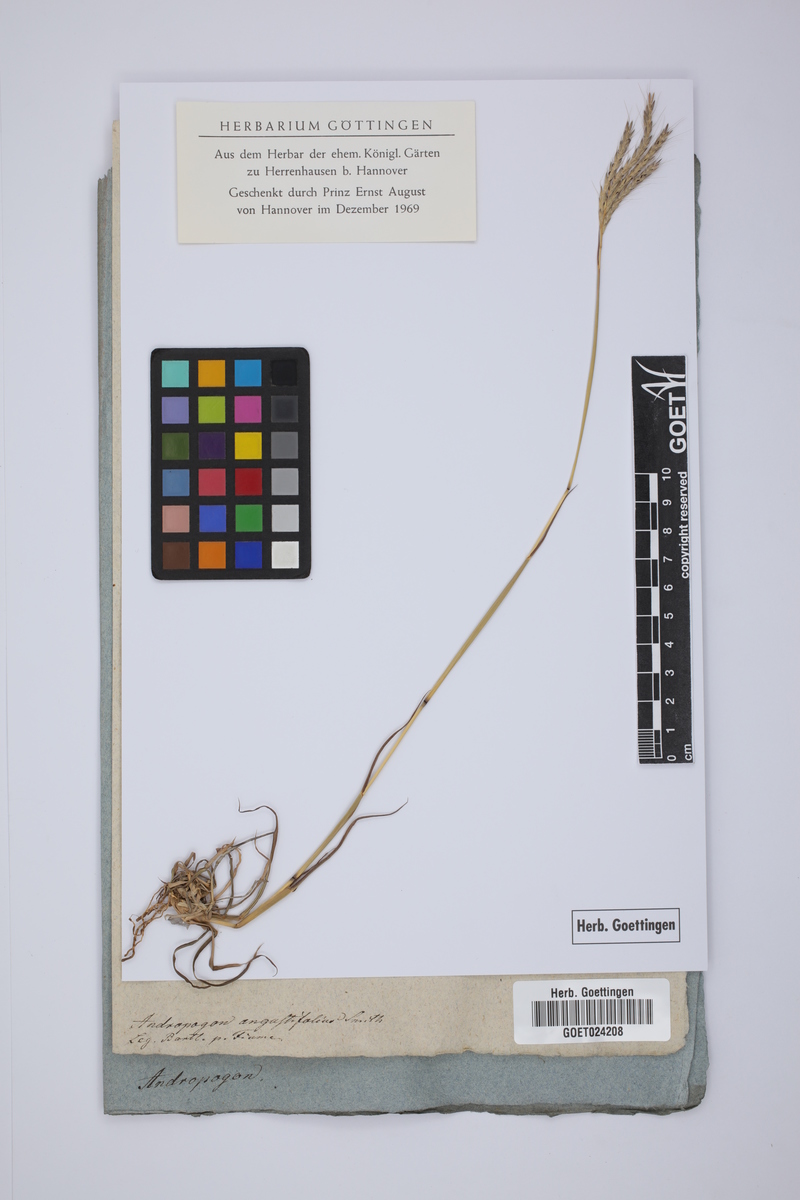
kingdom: Plantae
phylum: Tracheophyta
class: Liliopsida
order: Poales
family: Poaceae
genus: Bothriochloa
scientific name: Bothriochloa ischaemum
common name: Yellow bluestem
